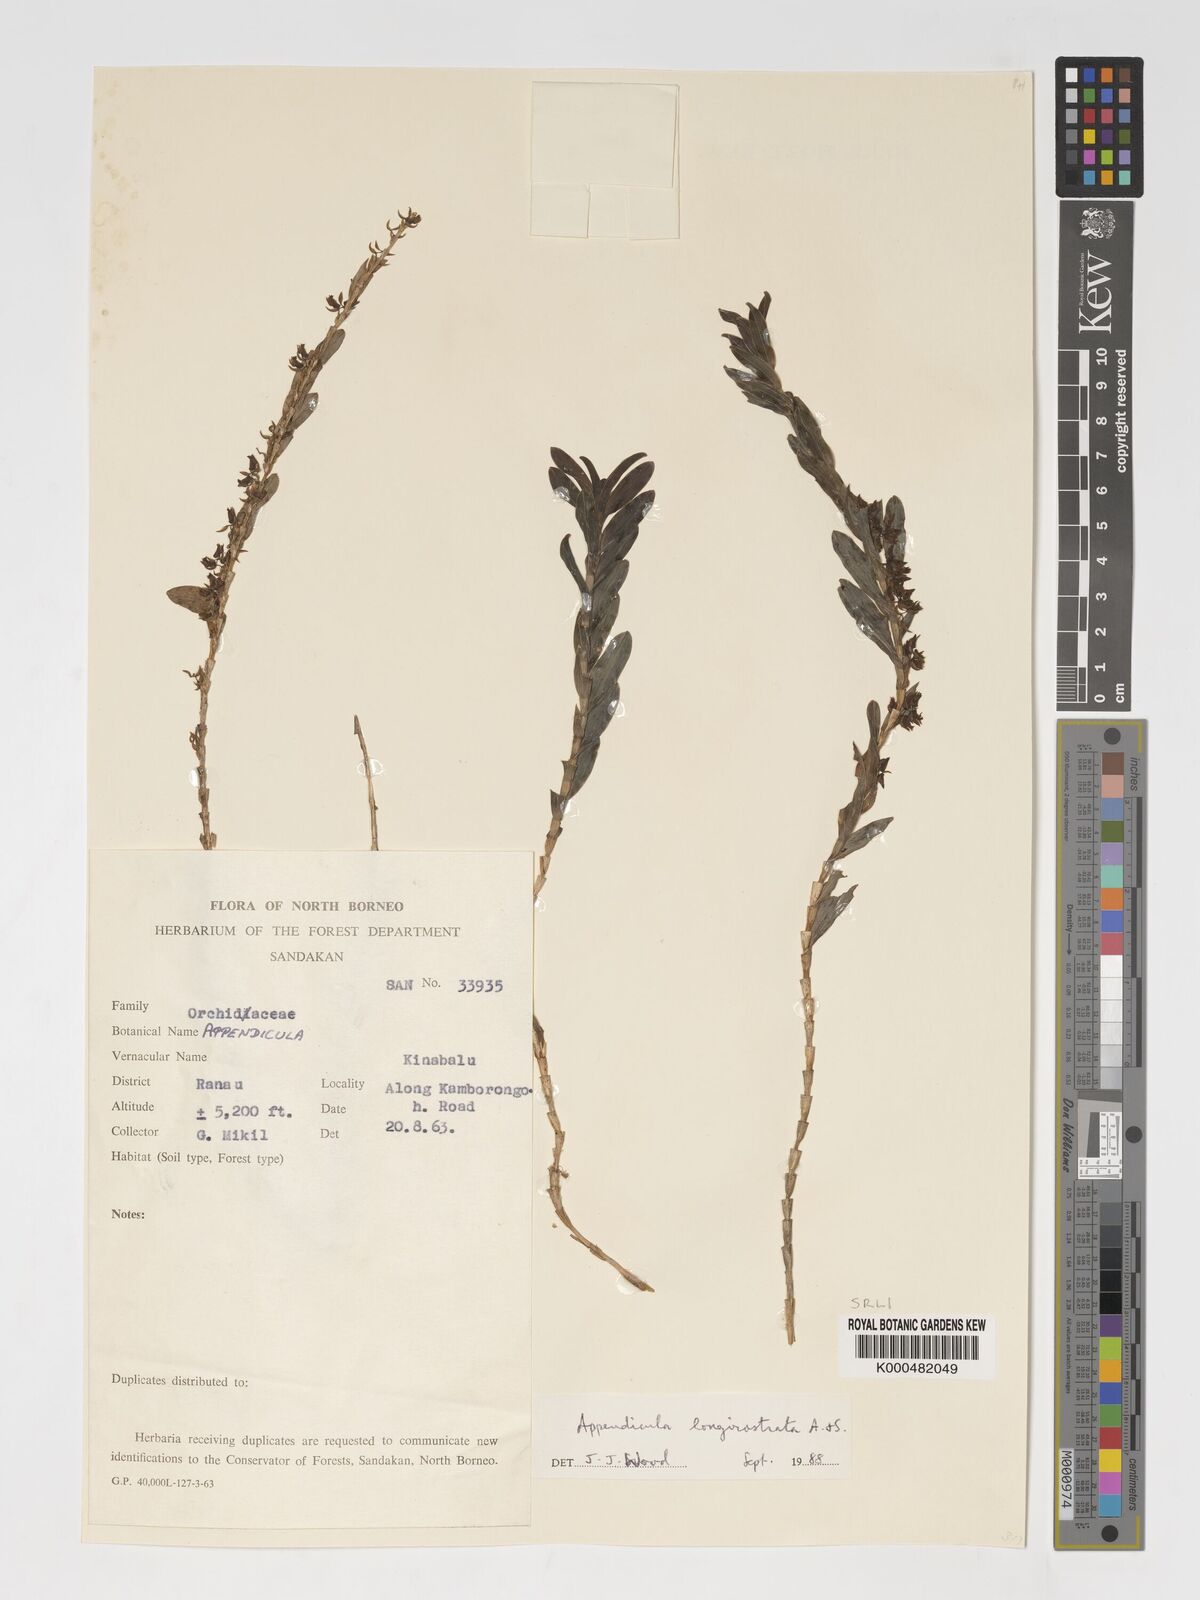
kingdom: Plantae
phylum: Tracheophyta
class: Liliopsida
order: Asparagales
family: Orchidaceae
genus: Appendicula
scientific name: Appendicula longirostrata
